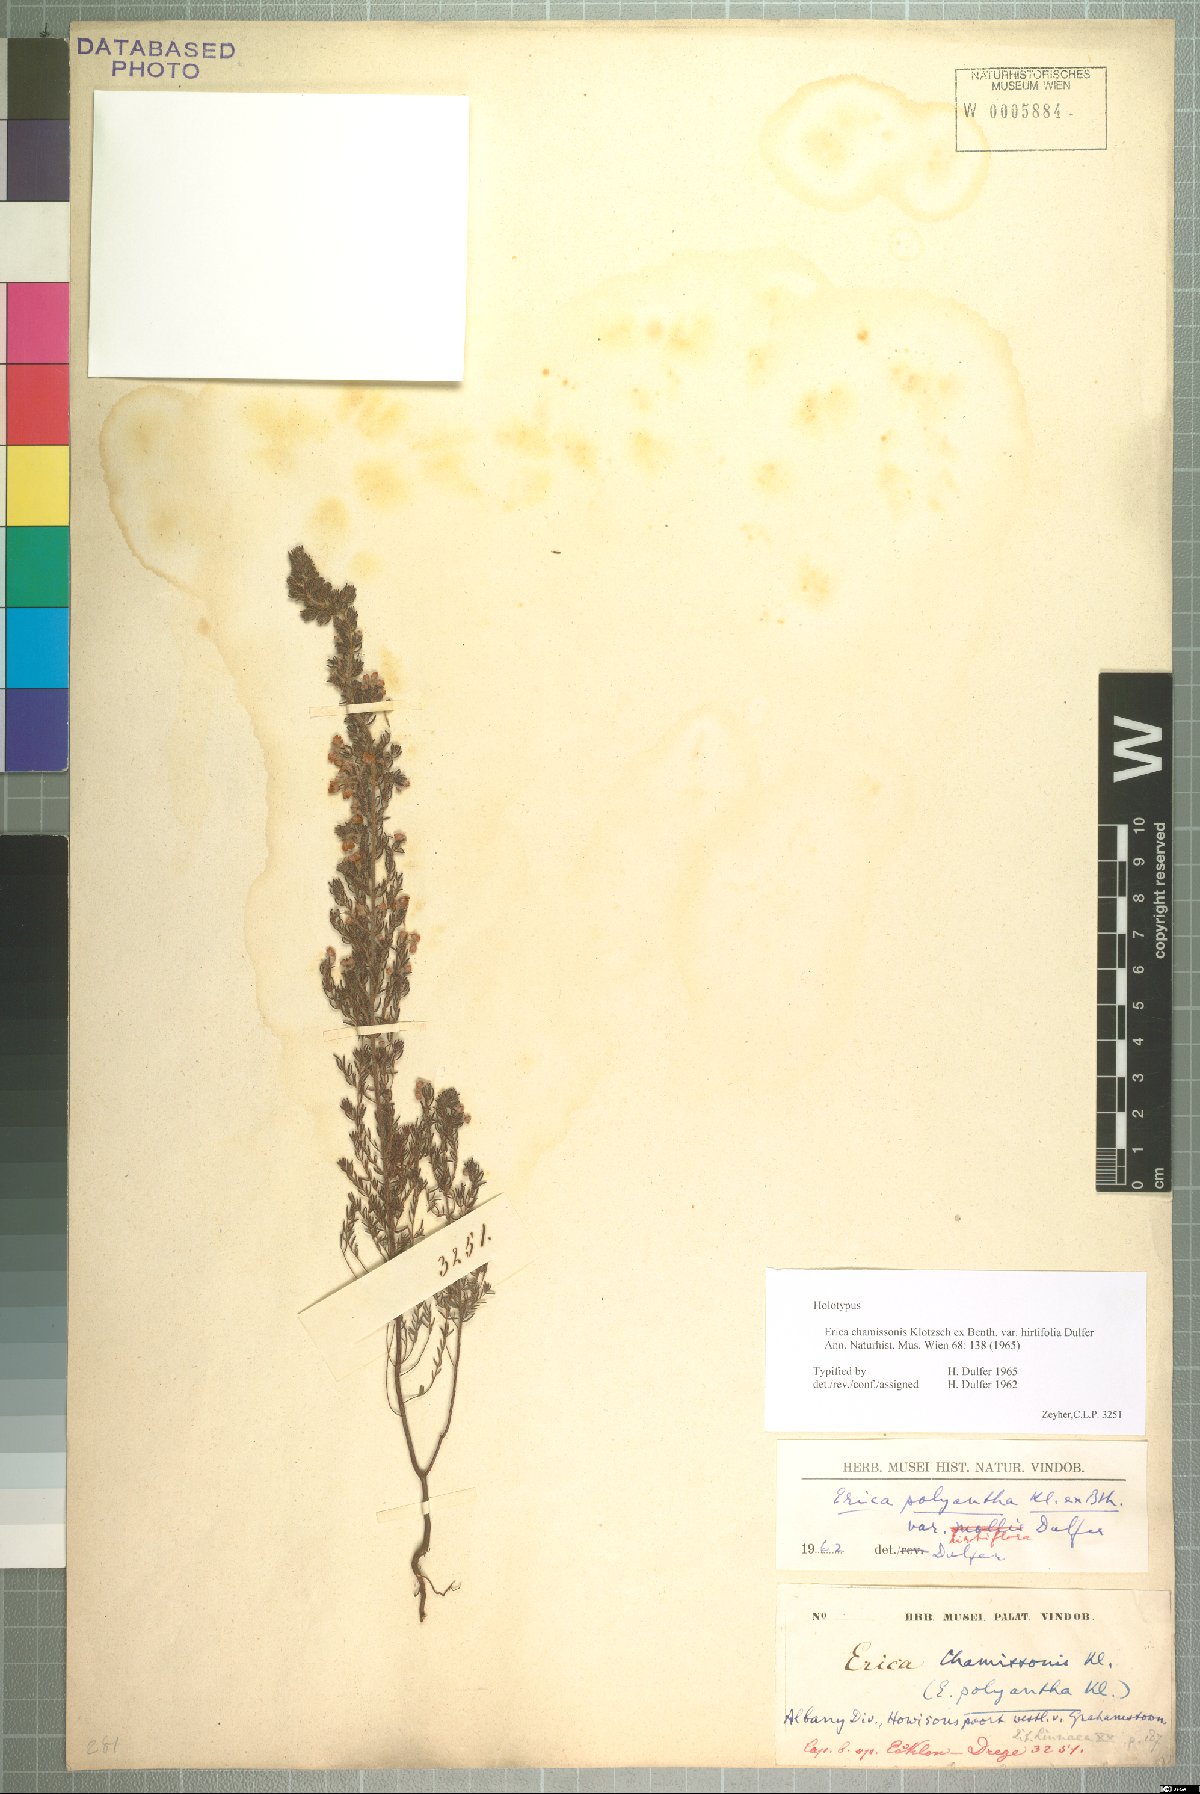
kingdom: Plantae
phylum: Tracheophyta
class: Magnoliopsida
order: Ericales
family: Ericaceae
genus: Erica
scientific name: Erica chamissonis
